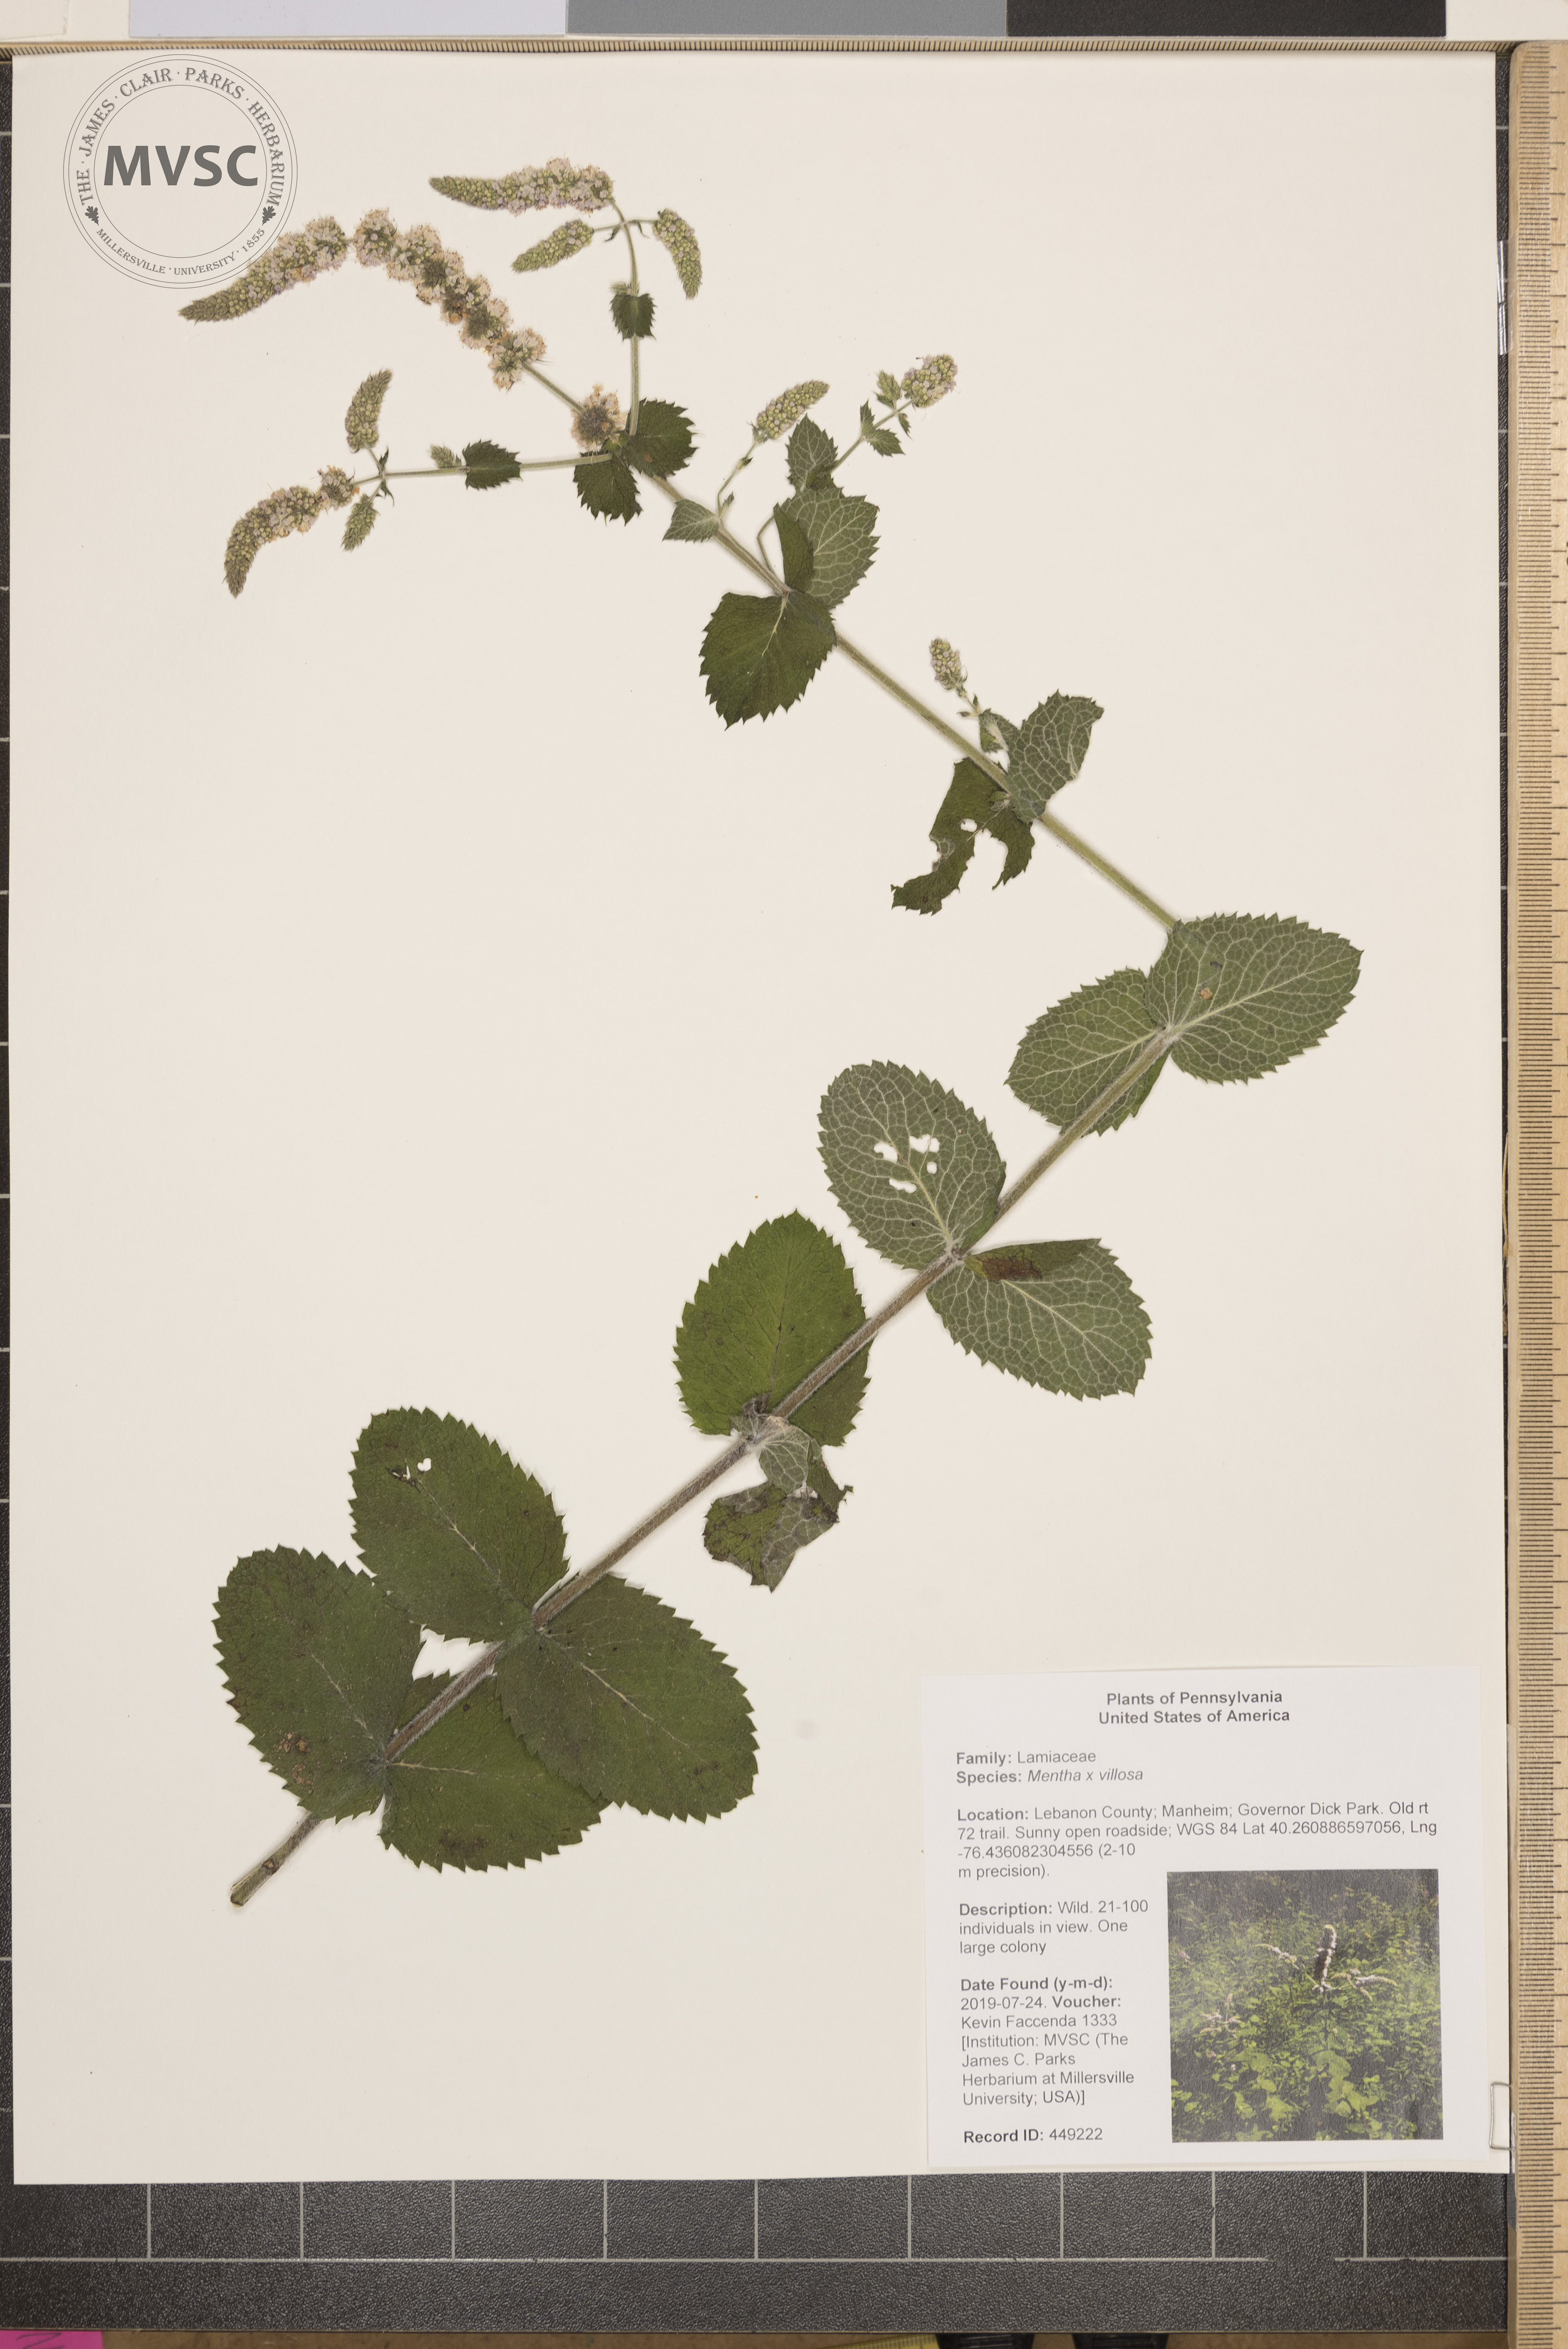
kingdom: Plantae
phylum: Tracheophyta
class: Magnoliopsida
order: Lamiales
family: Lamiaceae
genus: Mentha
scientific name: Mentha villosa
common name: Apple mint
